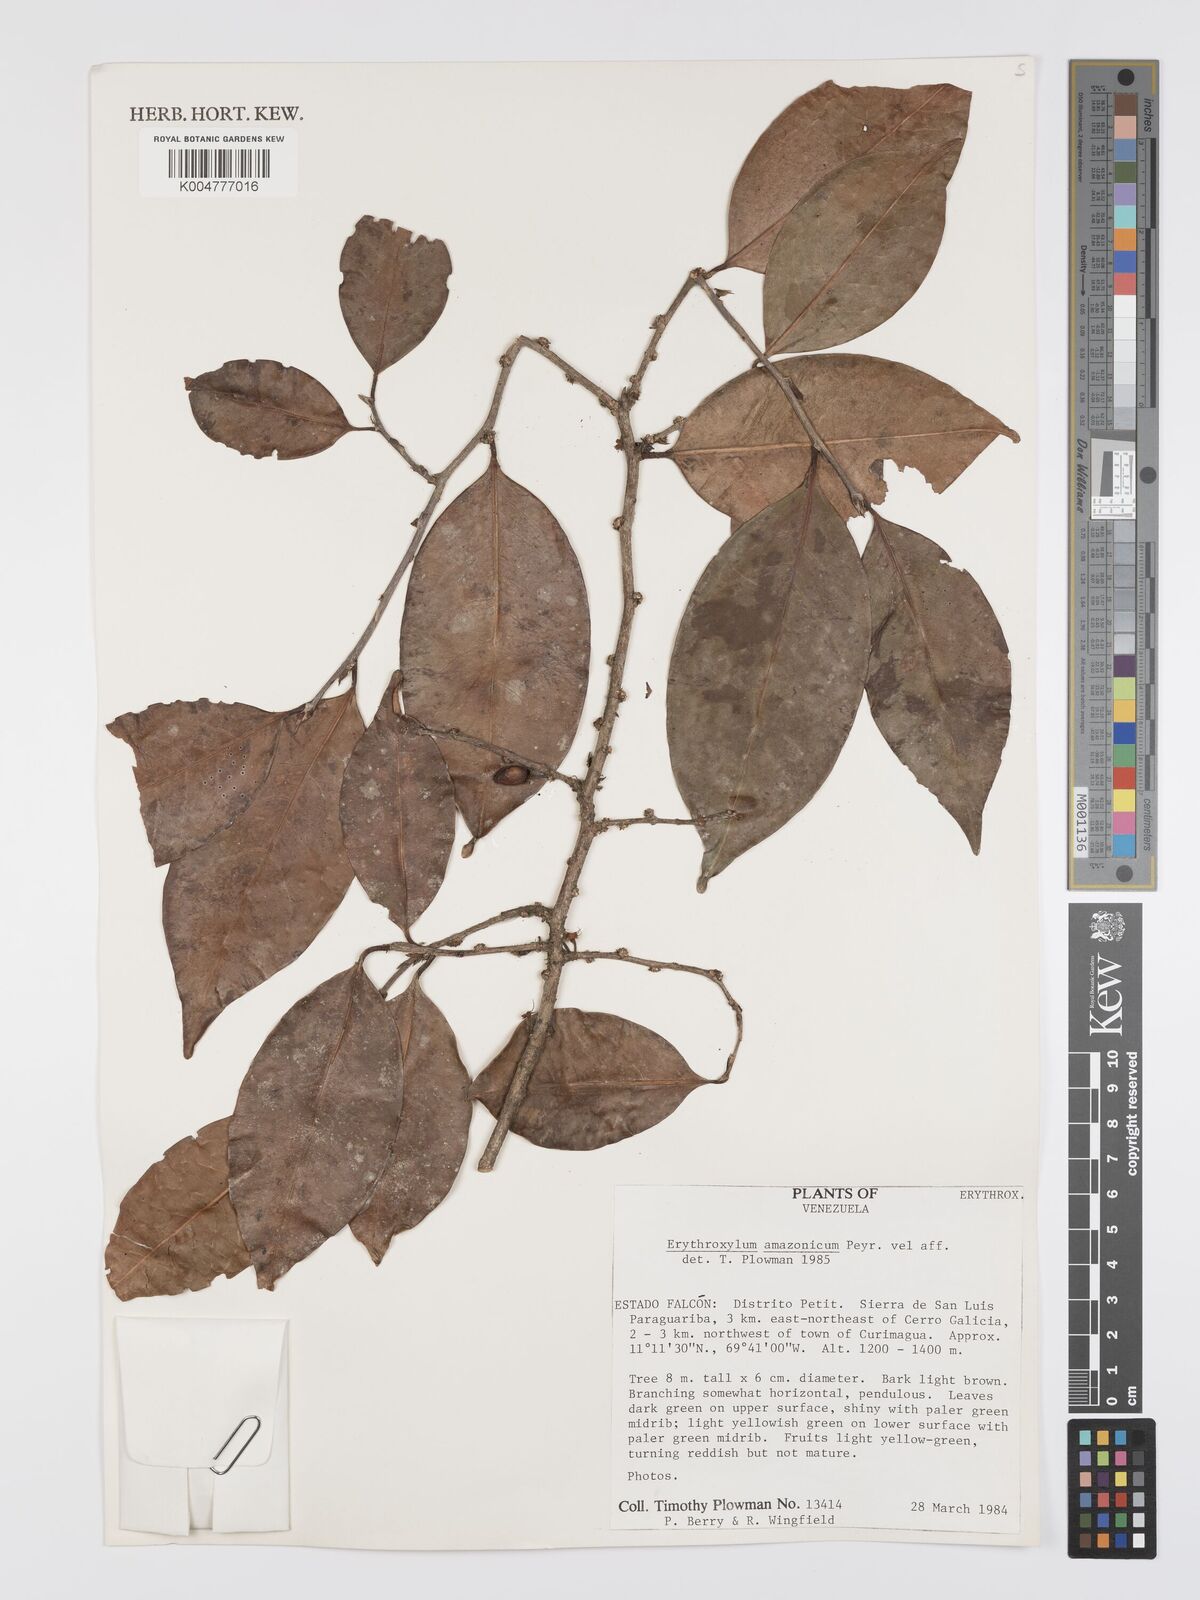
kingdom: Plantae
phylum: Tracheophyta
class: Magnoliopsida
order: Malpighiales
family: Erythroxylaceae
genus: Erythroxylum
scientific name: Erythroxylum amazonicum
